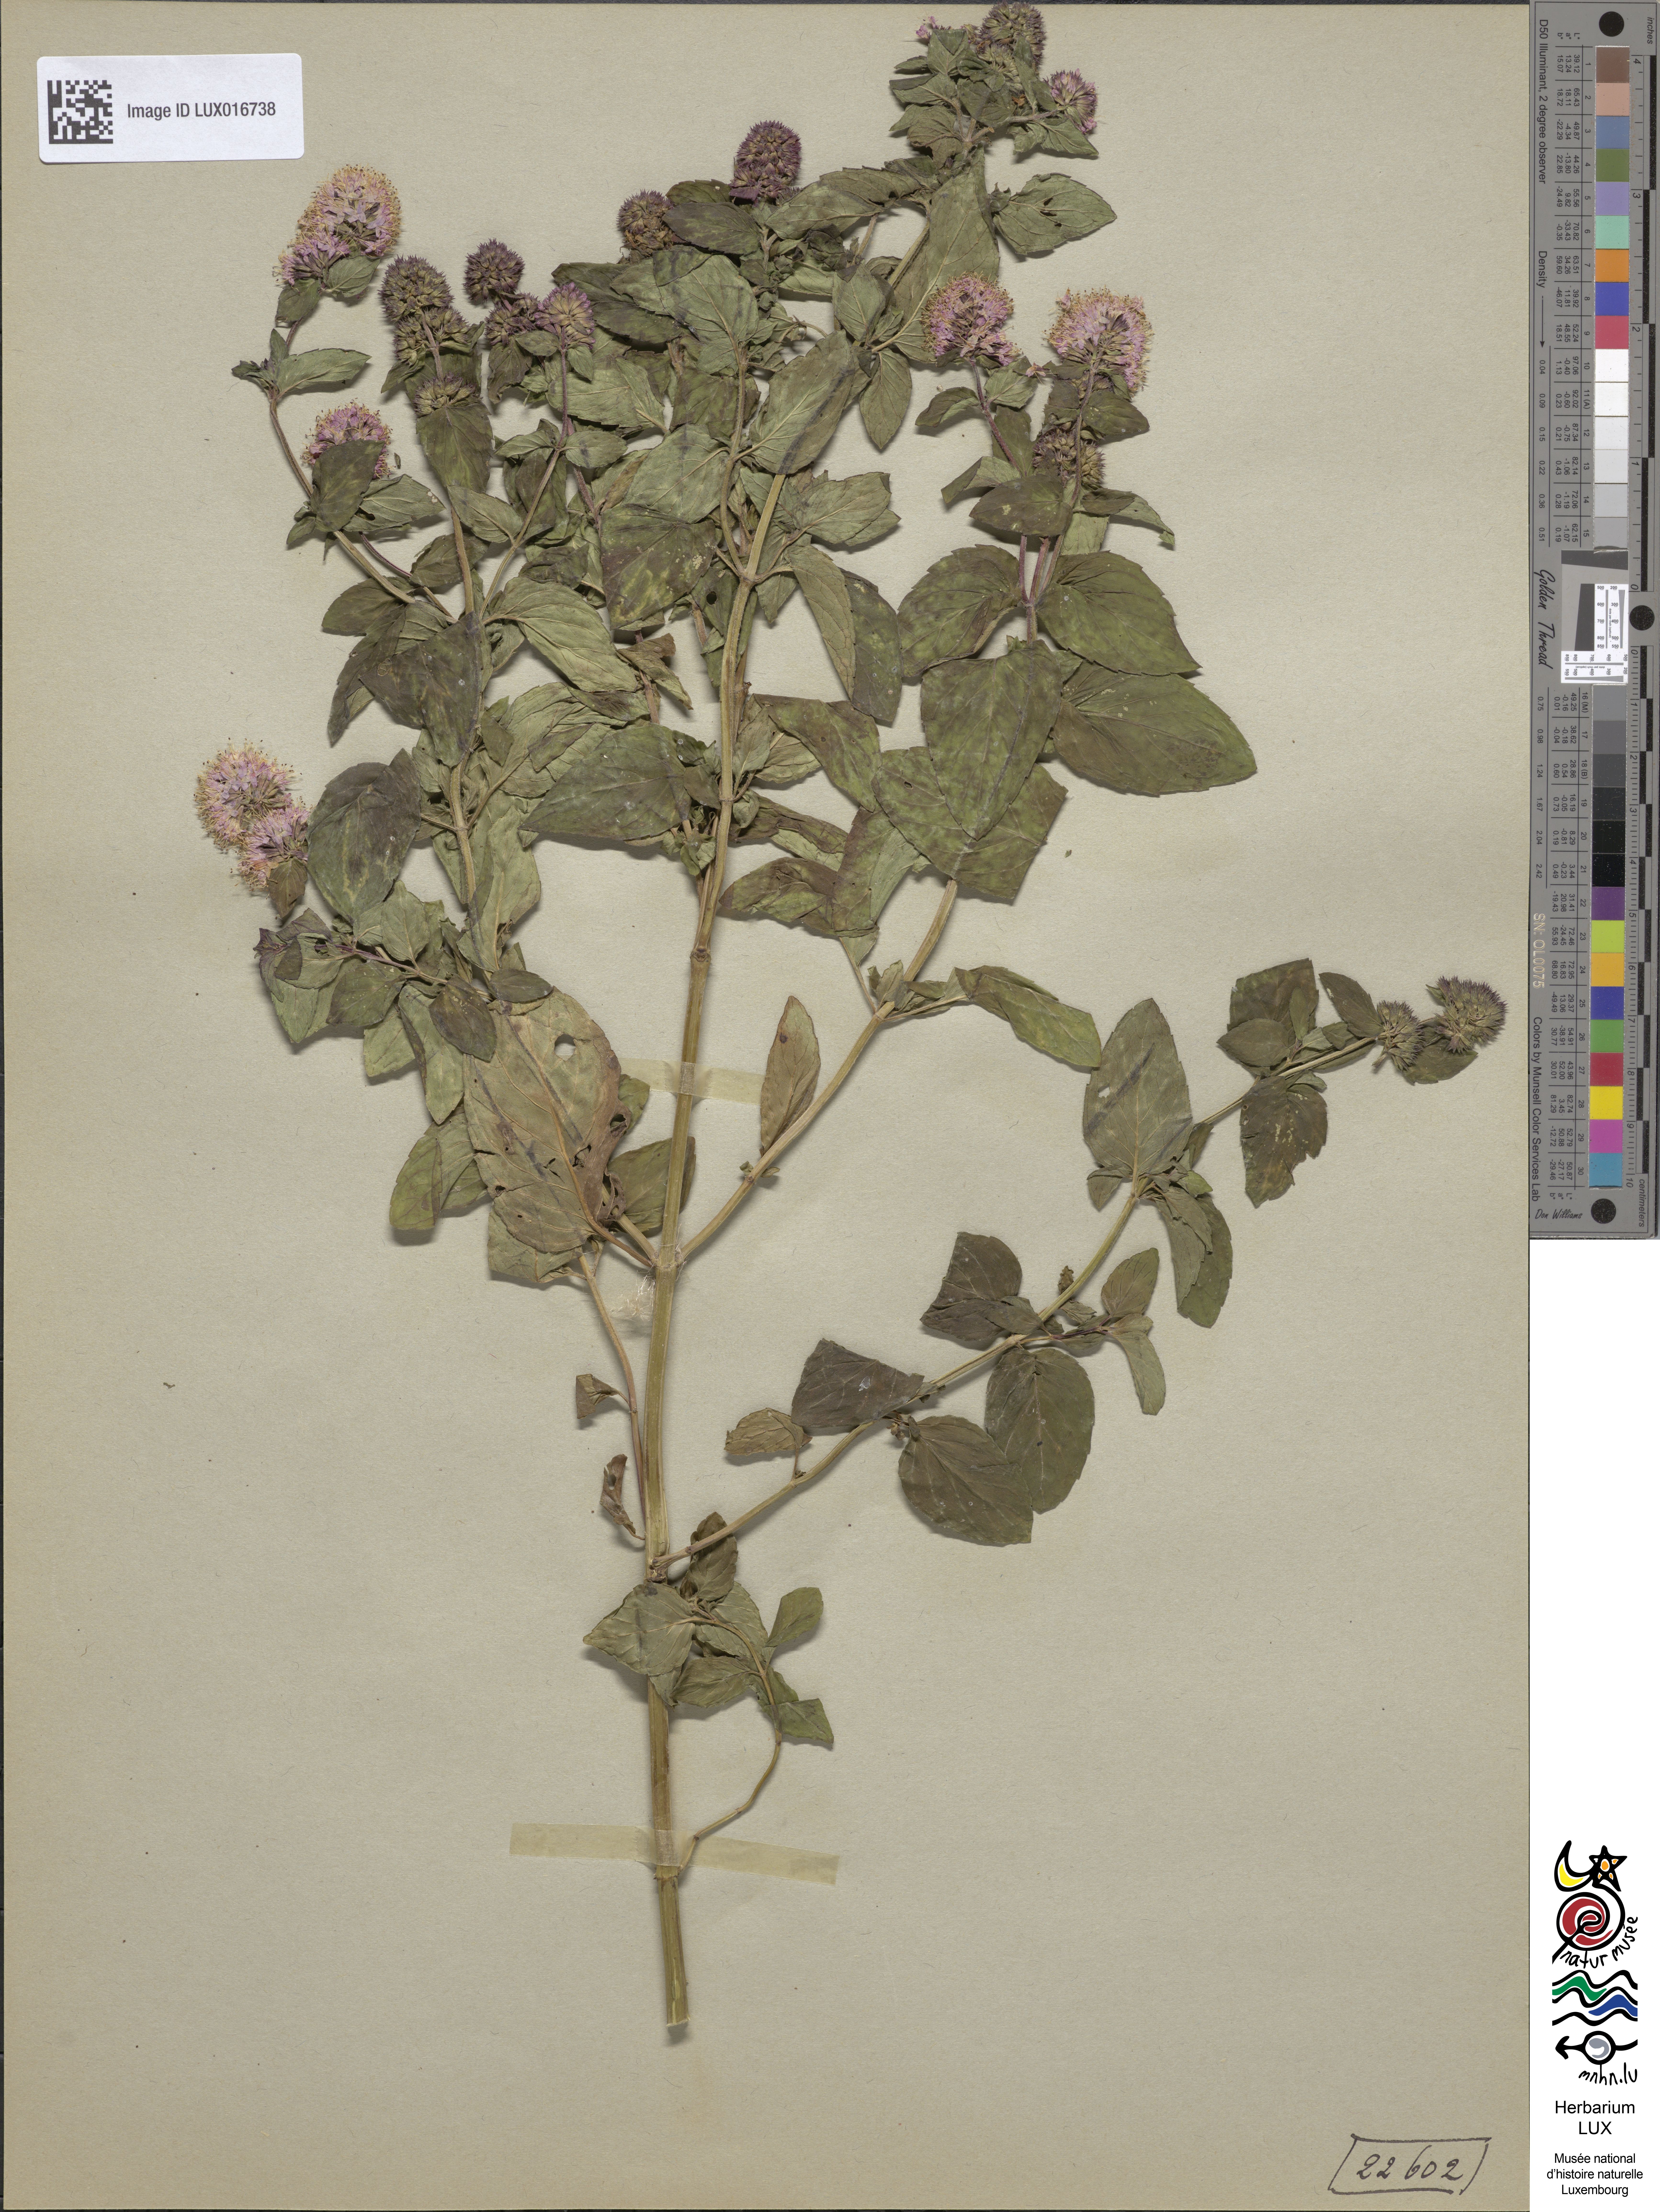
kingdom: Plantae
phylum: Tracheophyta
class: Magnoliopsida
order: Lamiales
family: Lamiaceae
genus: Mentha
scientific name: Mentha aquatica
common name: Water mint
